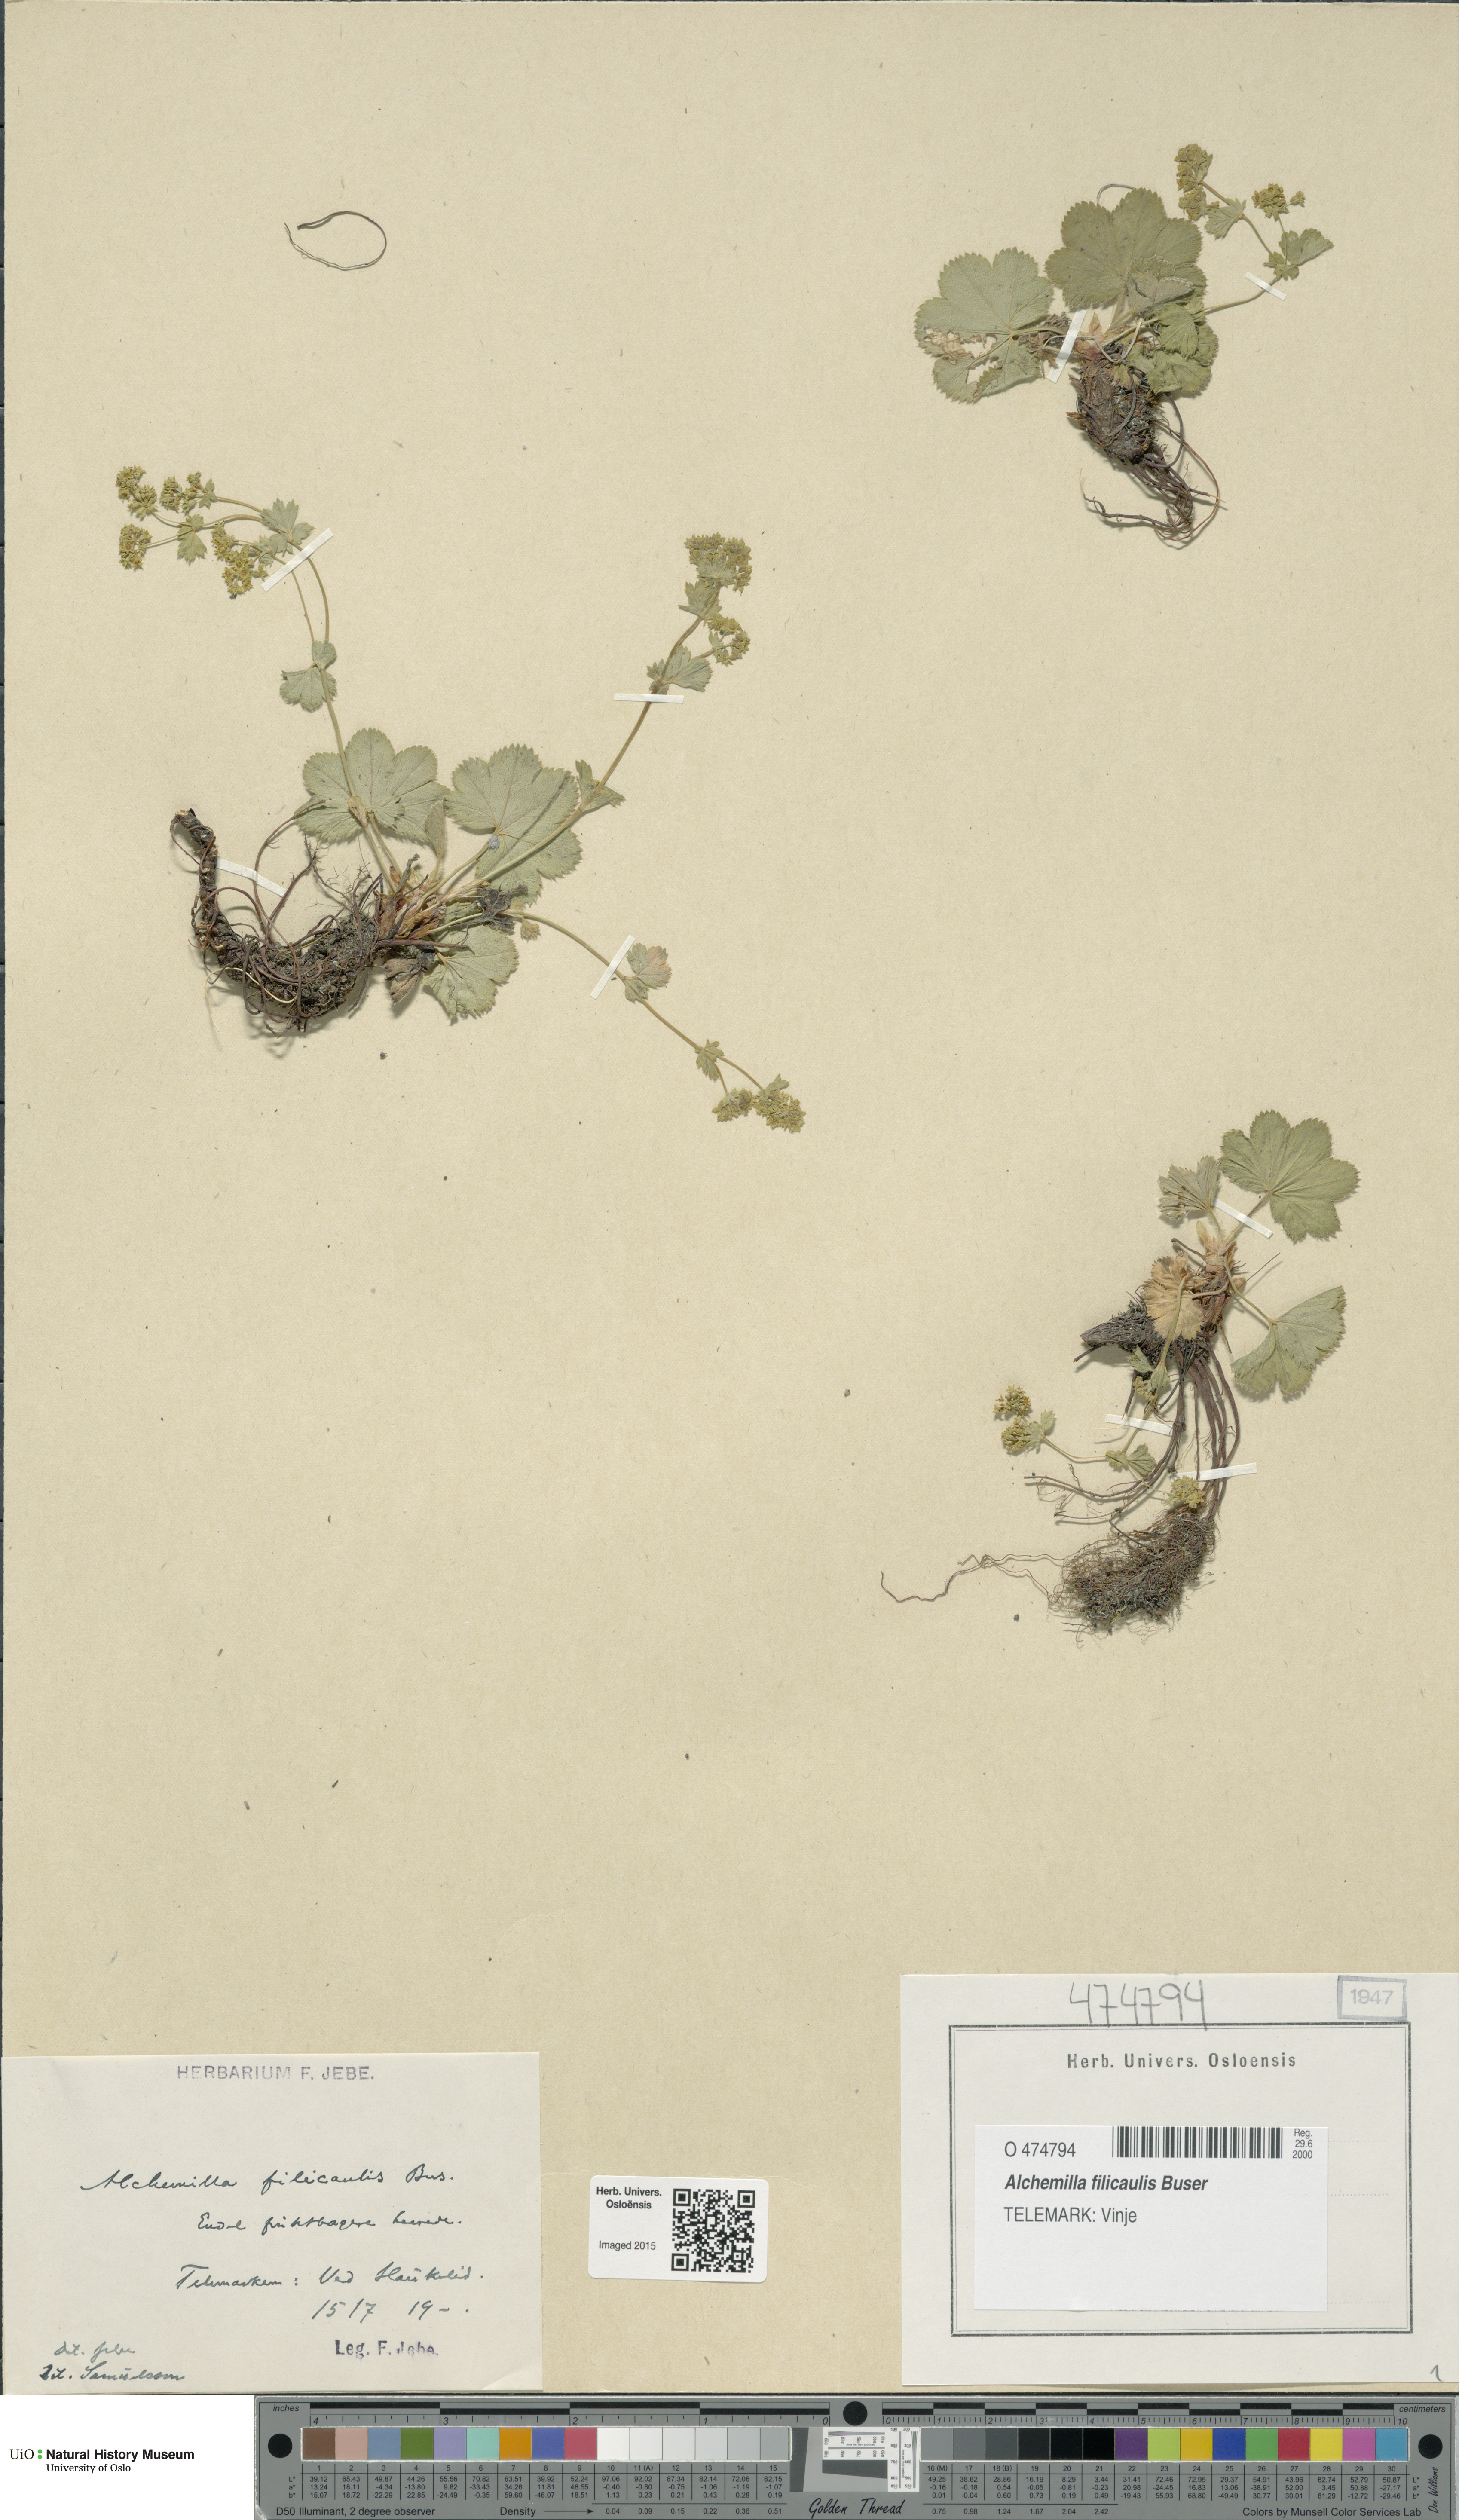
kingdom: Plantae
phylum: Tracheophyta
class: Magnoliopsida
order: Rosales
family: Rosaceae
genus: Alchemilla
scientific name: Alchemilla filicaulis
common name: Hairy lady's-mantle
